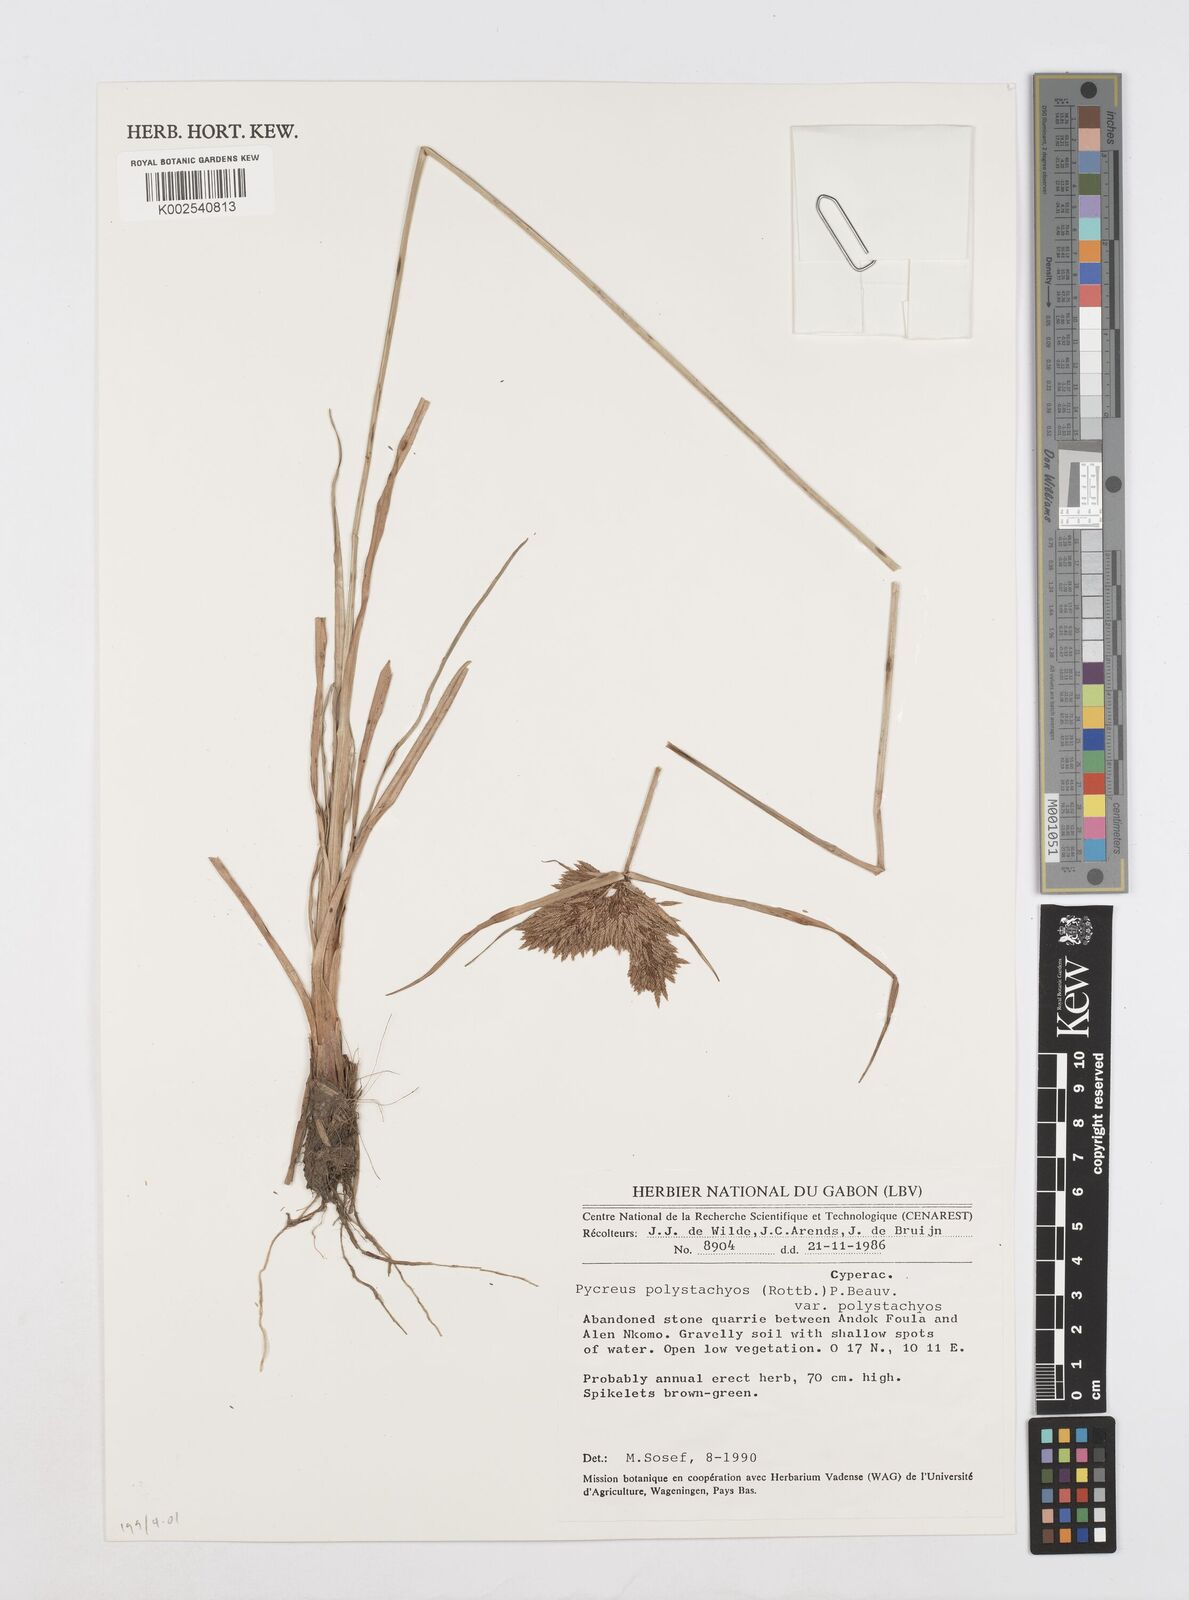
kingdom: Plantae
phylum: Tracheophyta
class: Liliopsida
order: Poales
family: Cyperaceae
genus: Cyperus
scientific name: Cyperus polystachyos
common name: Bunchy flat sedge
